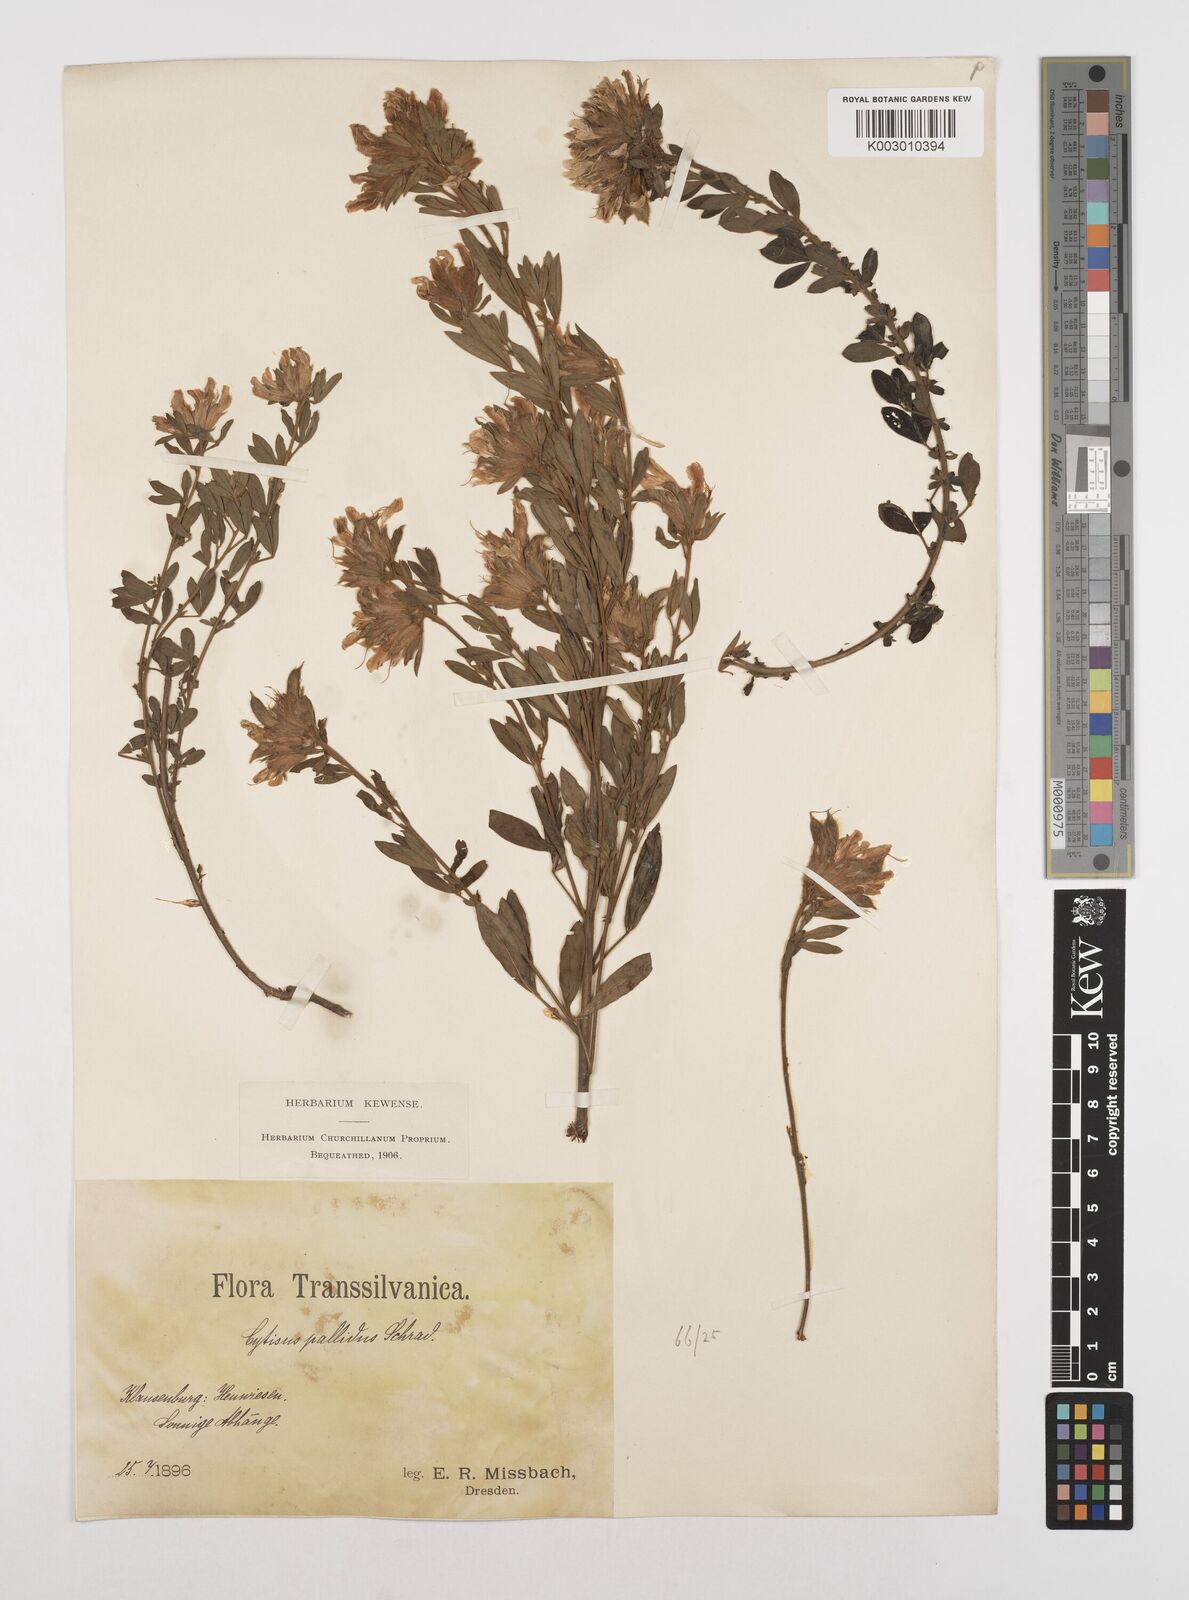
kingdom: Plantae
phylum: Tracheophyta
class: Magnoliopsida
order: Fabales
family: Fabaceae
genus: Chamaecytisus
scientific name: Chamaecytisus rochelii
